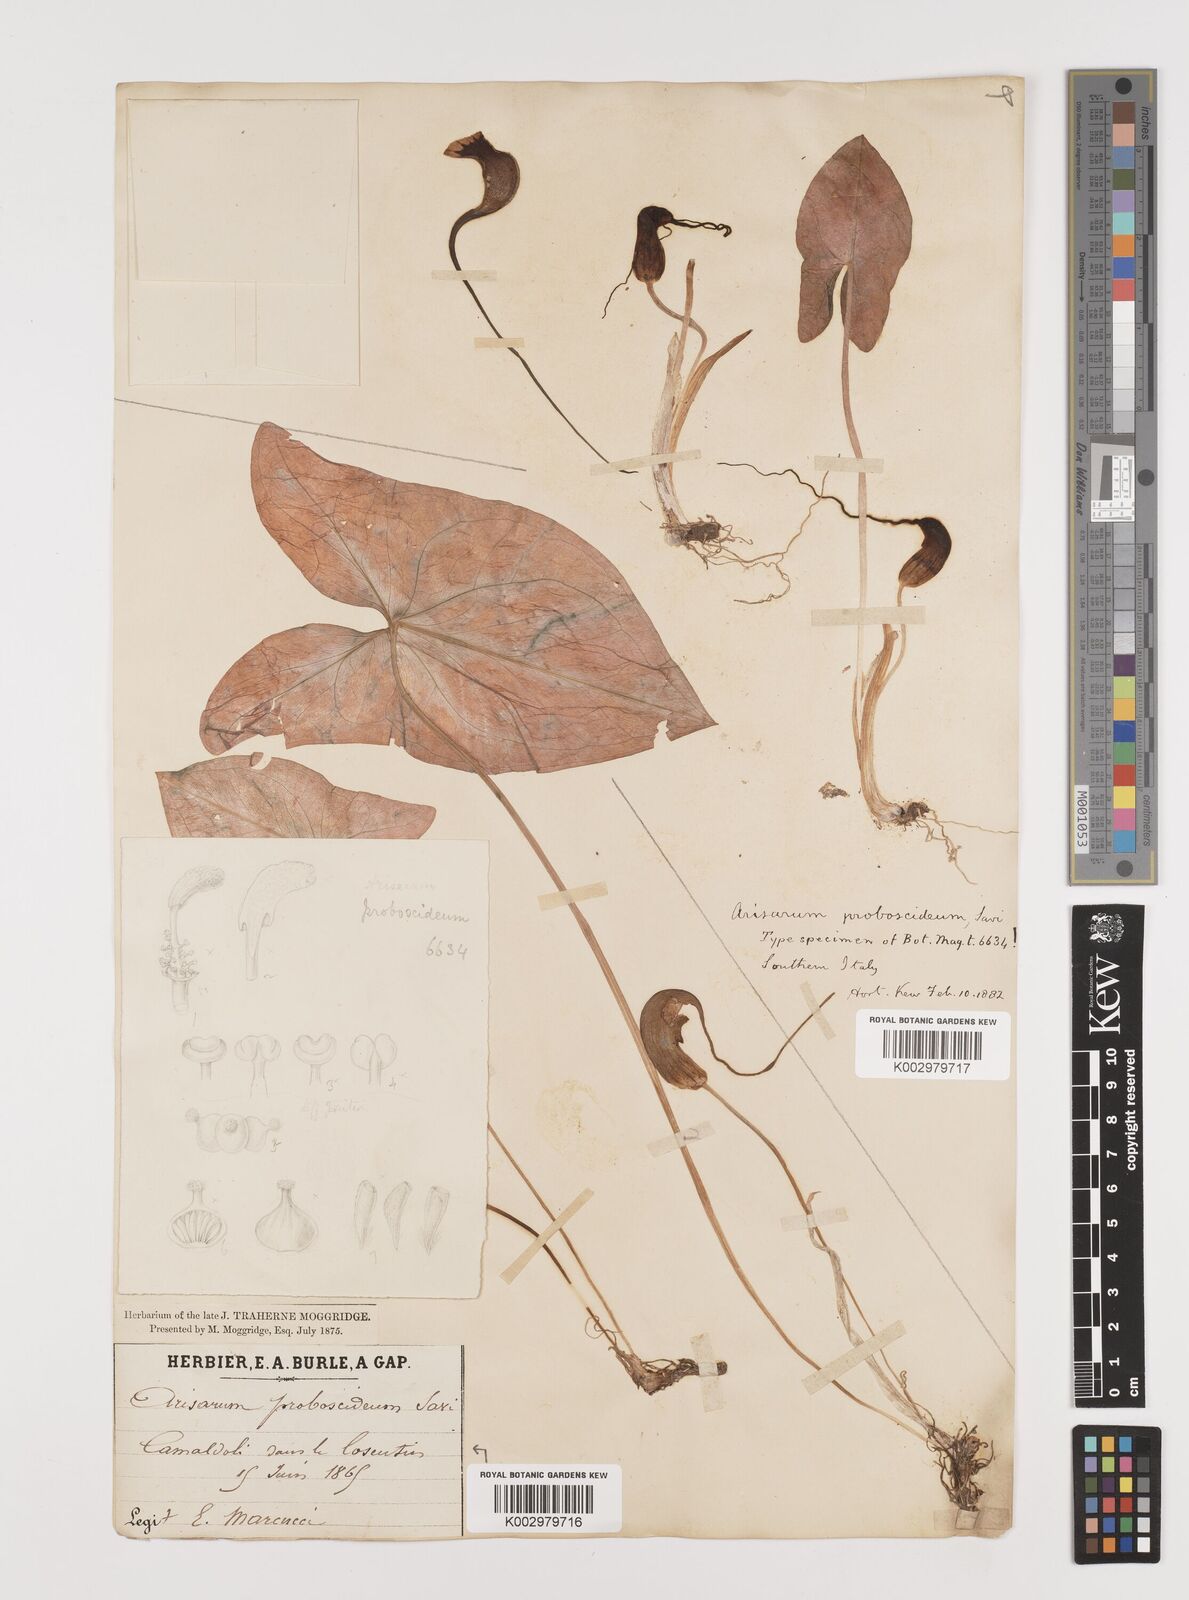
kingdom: Plantae
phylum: Tracheophyta
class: Liliopsida
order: Alismatales
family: Araceae
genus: Arisarum
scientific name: Arisarum proboscideum
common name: Mousetailplant
